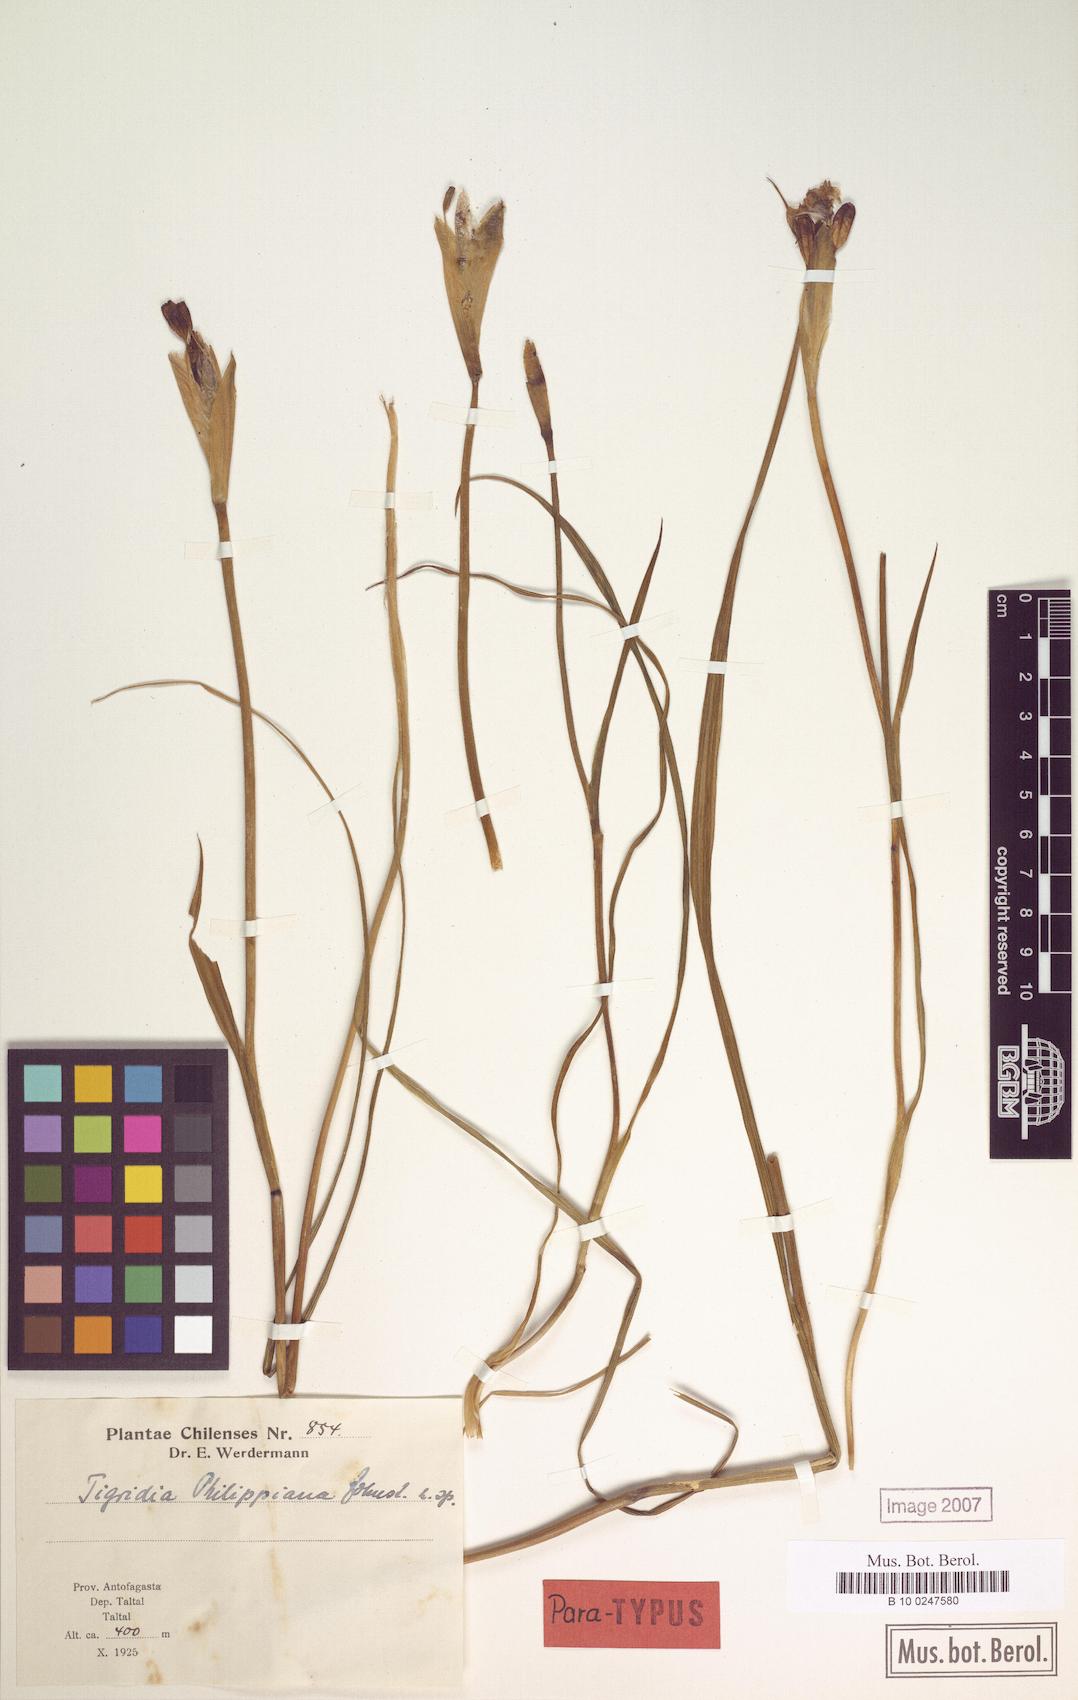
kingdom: Plantae
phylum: Tracheophyta
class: Liliopsida
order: Asparagales
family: Iridaceae
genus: Tigridia
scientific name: Tigridia philippiana
